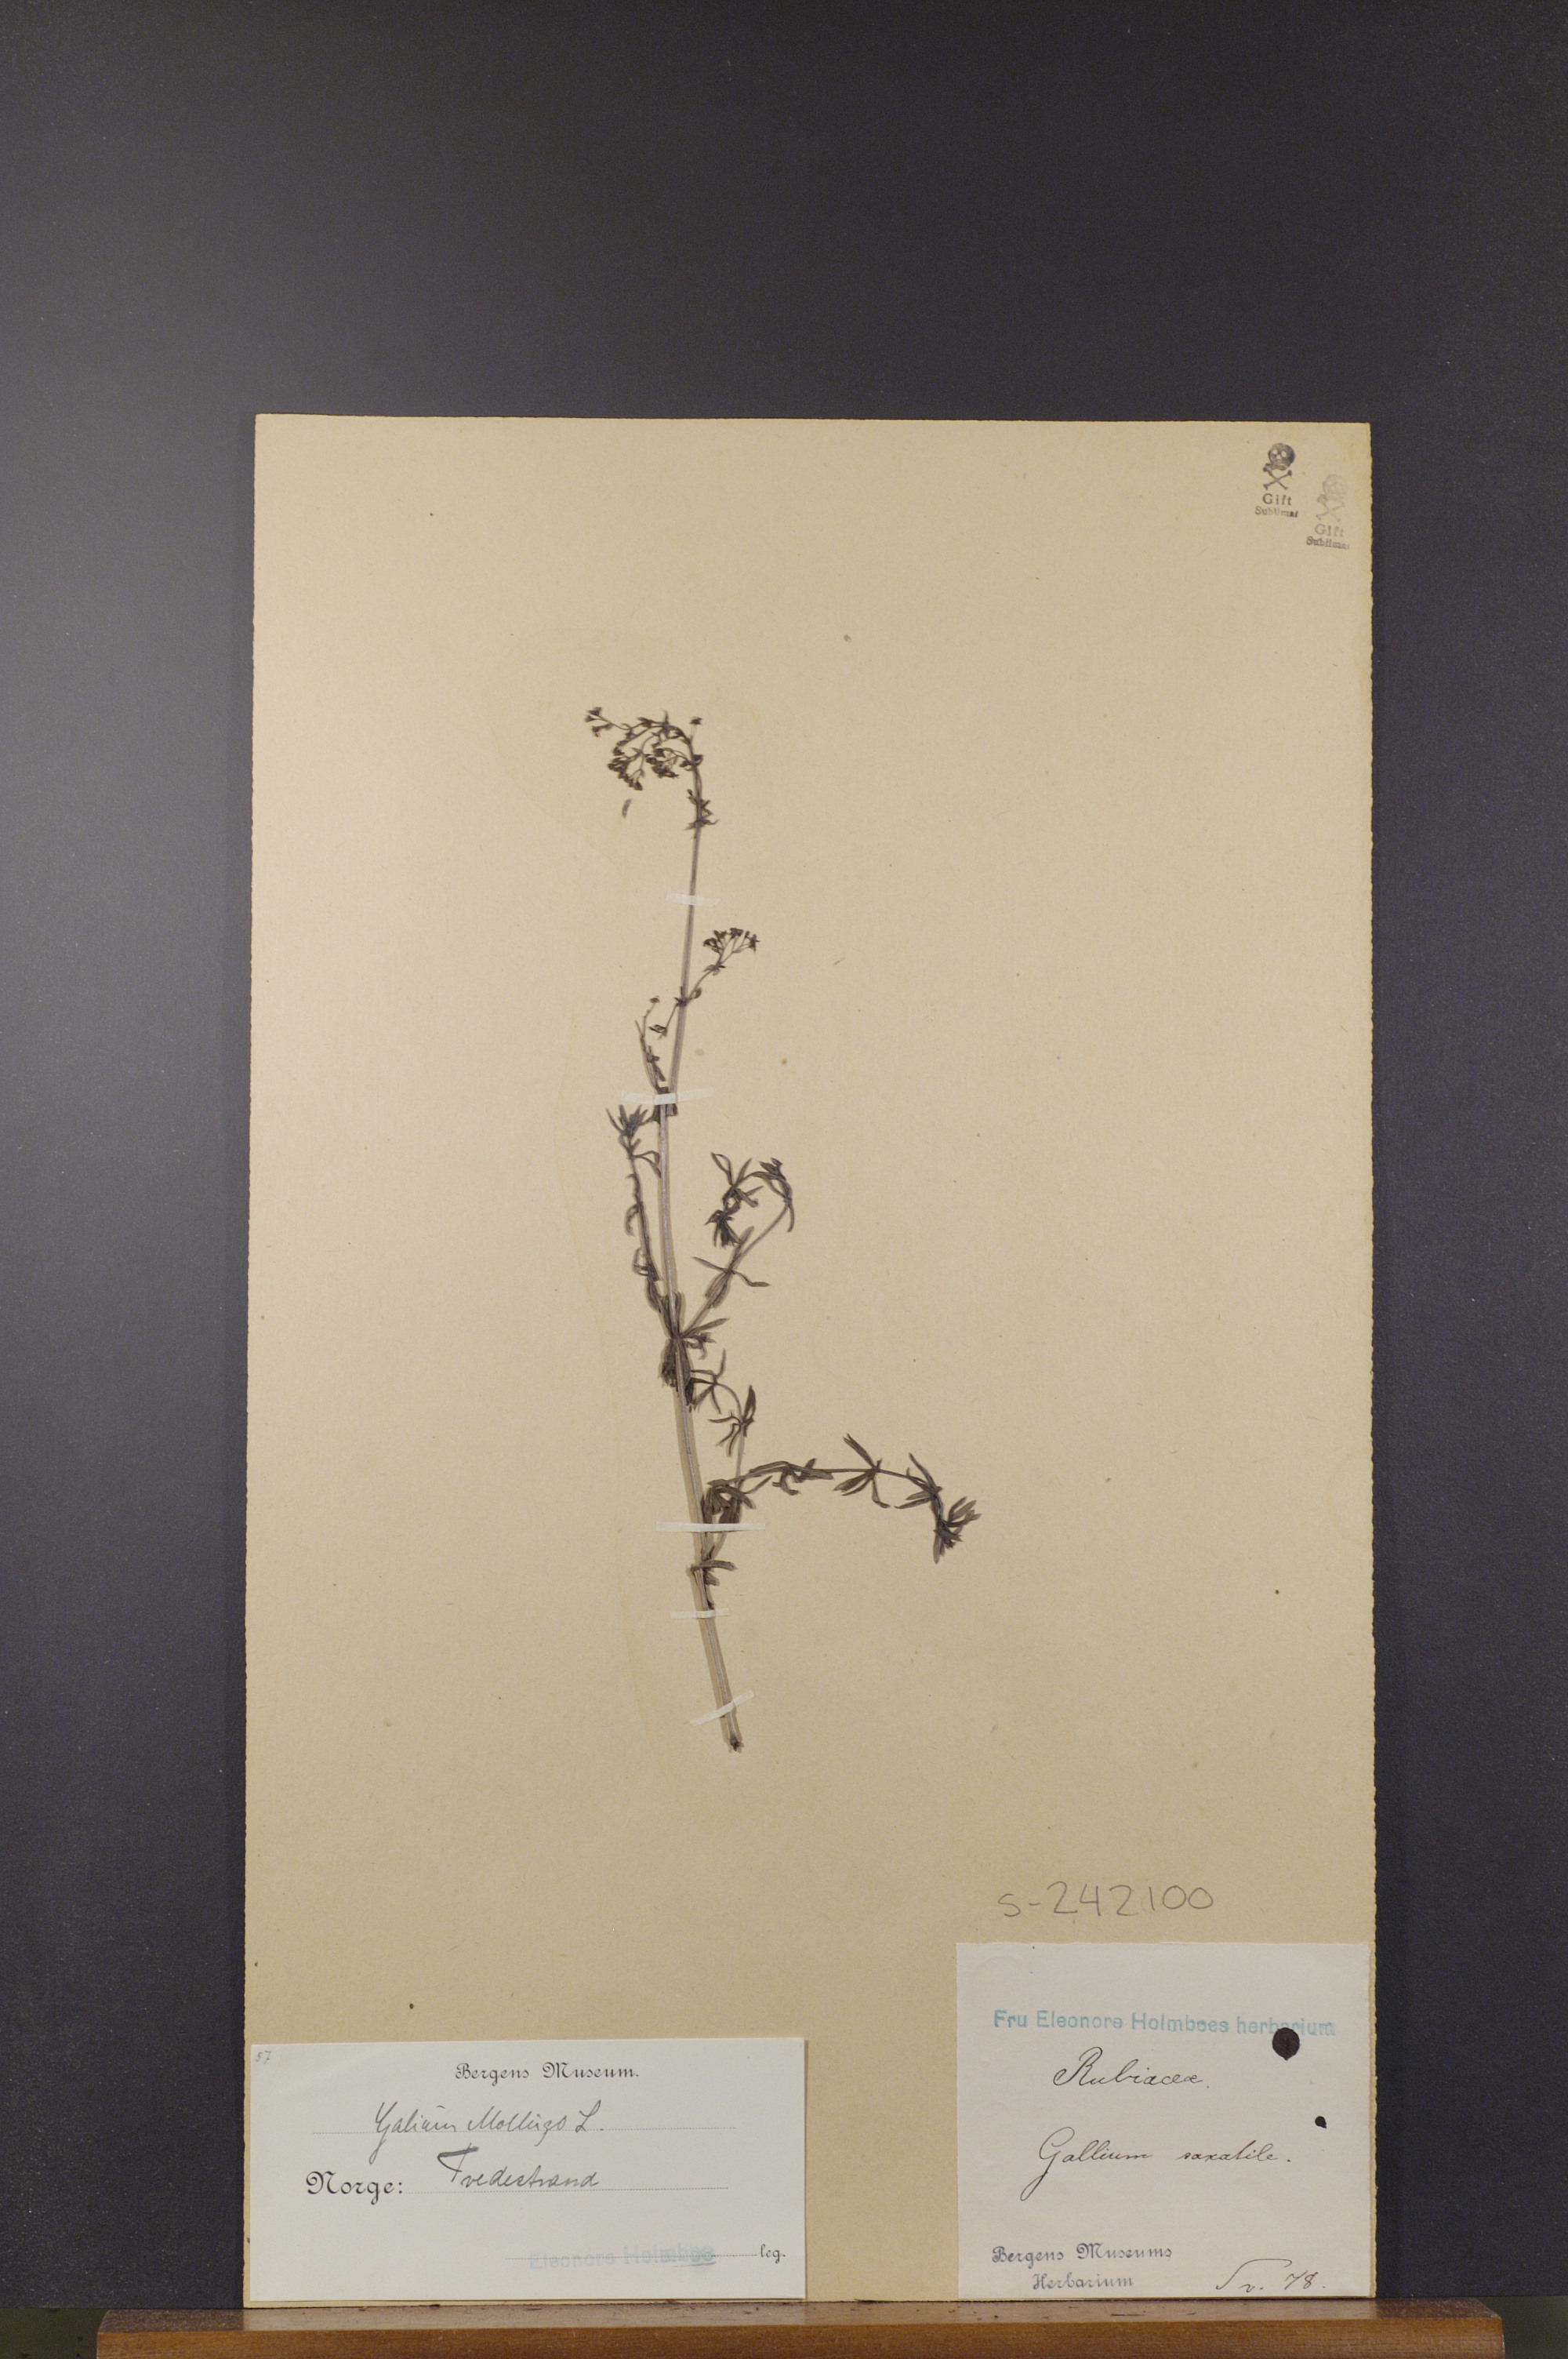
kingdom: Plantae
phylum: Tracheophyta
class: Magnoliopsida
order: Gentianales
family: Rubiaceae
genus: Galium
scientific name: Galium saxatile
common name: Heath bedstraw
